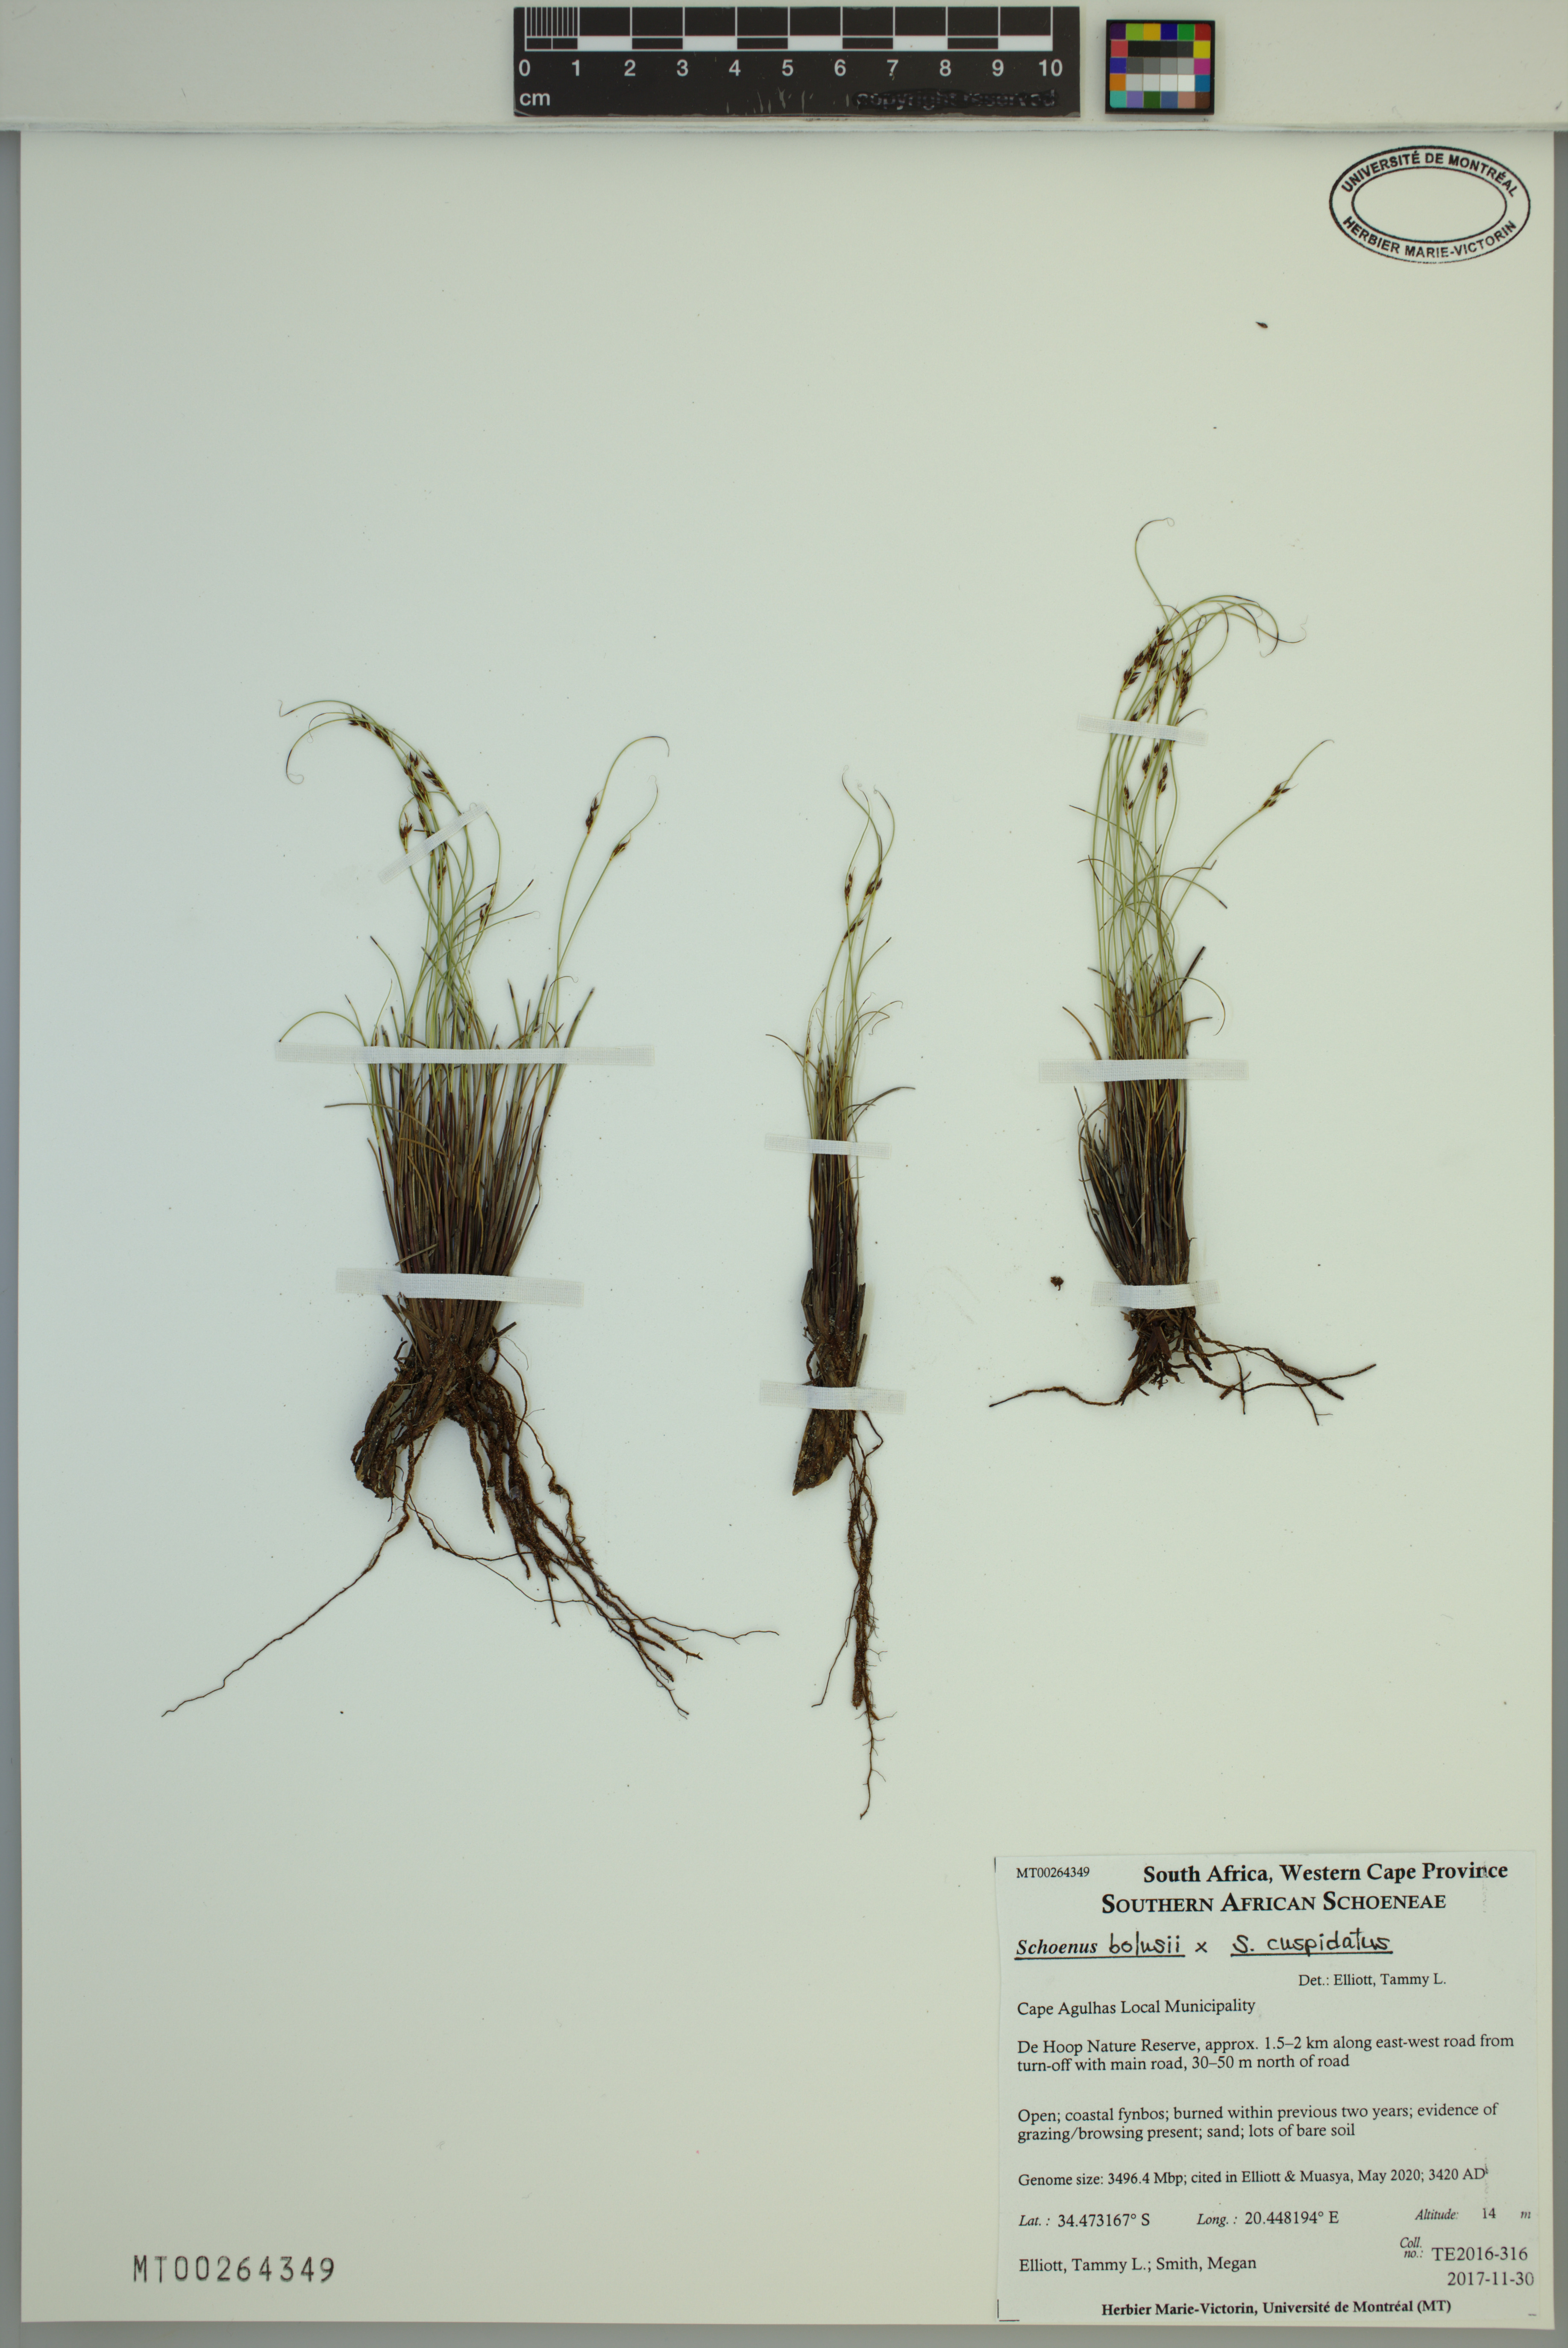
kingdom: Plantae
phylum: Tracheophyta
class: Liliopsida
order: Poales
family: Cyperaceae
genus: Schoenus
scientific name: Schoenus bolusii
